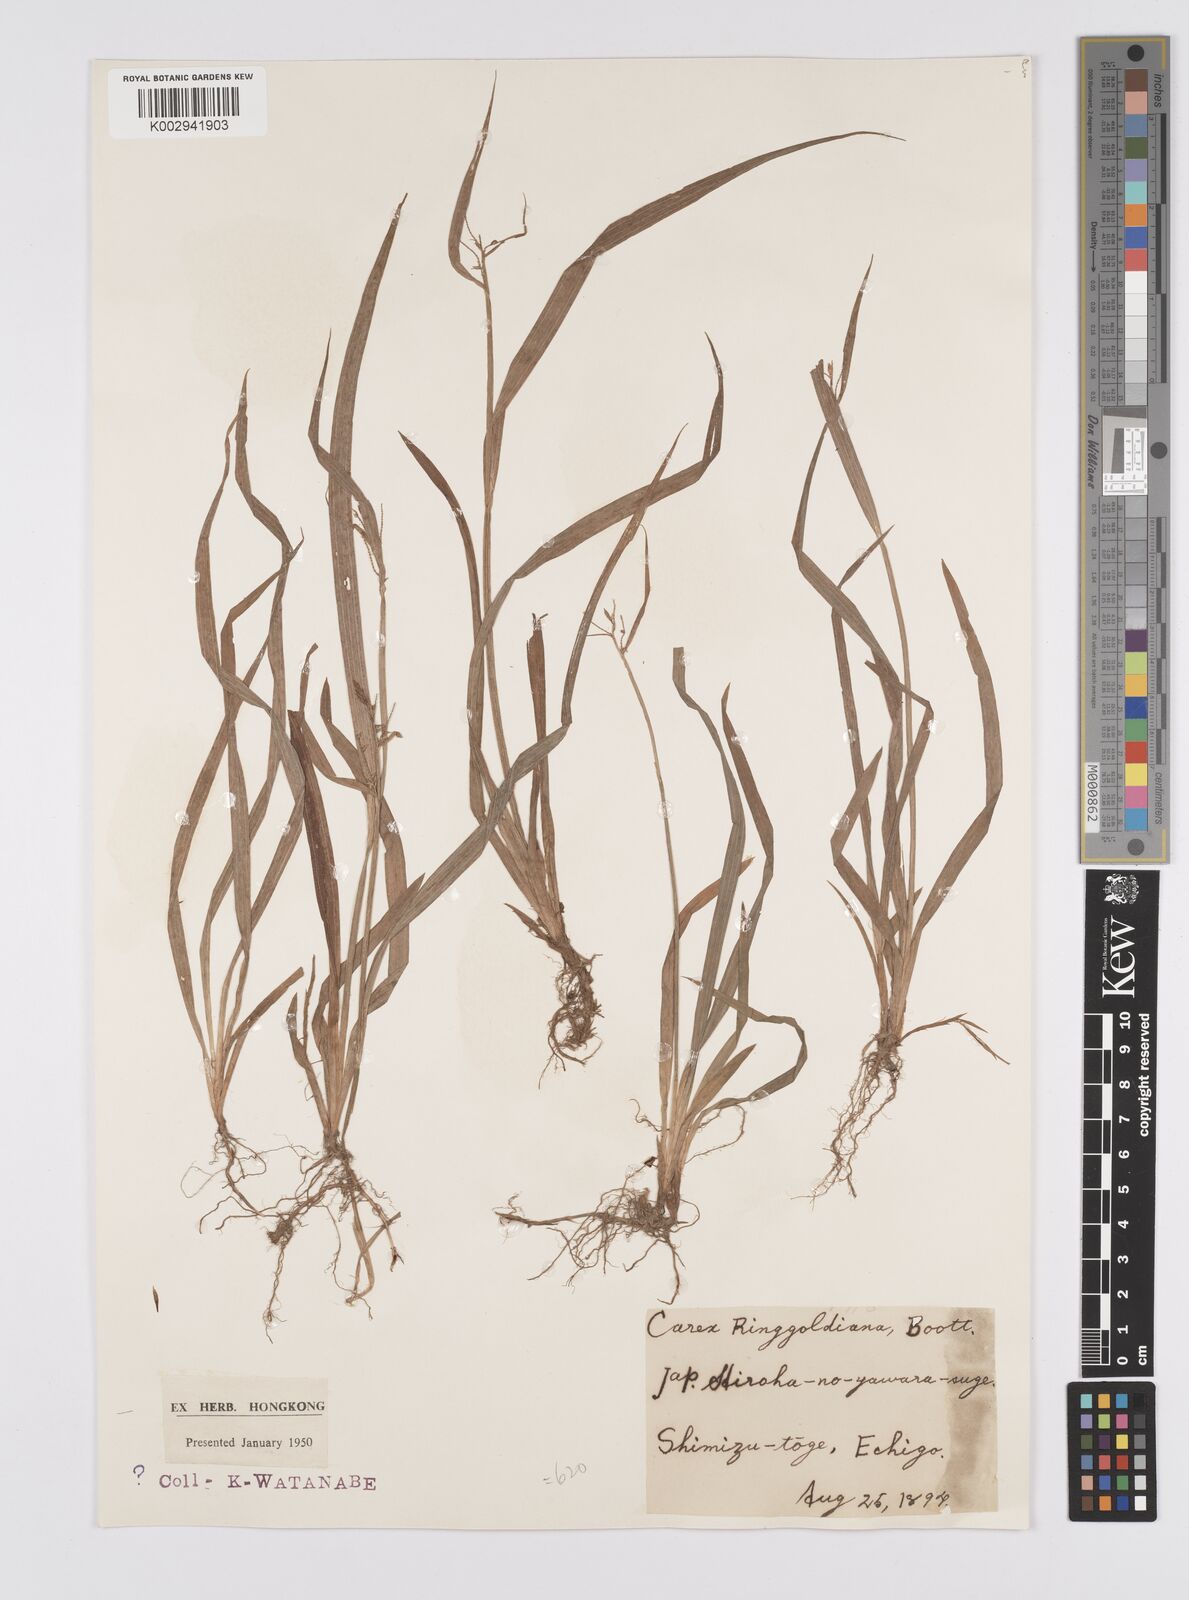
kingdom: Plantae
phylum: Tracheophyta
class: Liliopsida
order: Poales
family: Cyperaceae
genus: Carex
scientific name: Carex ischnostachya
